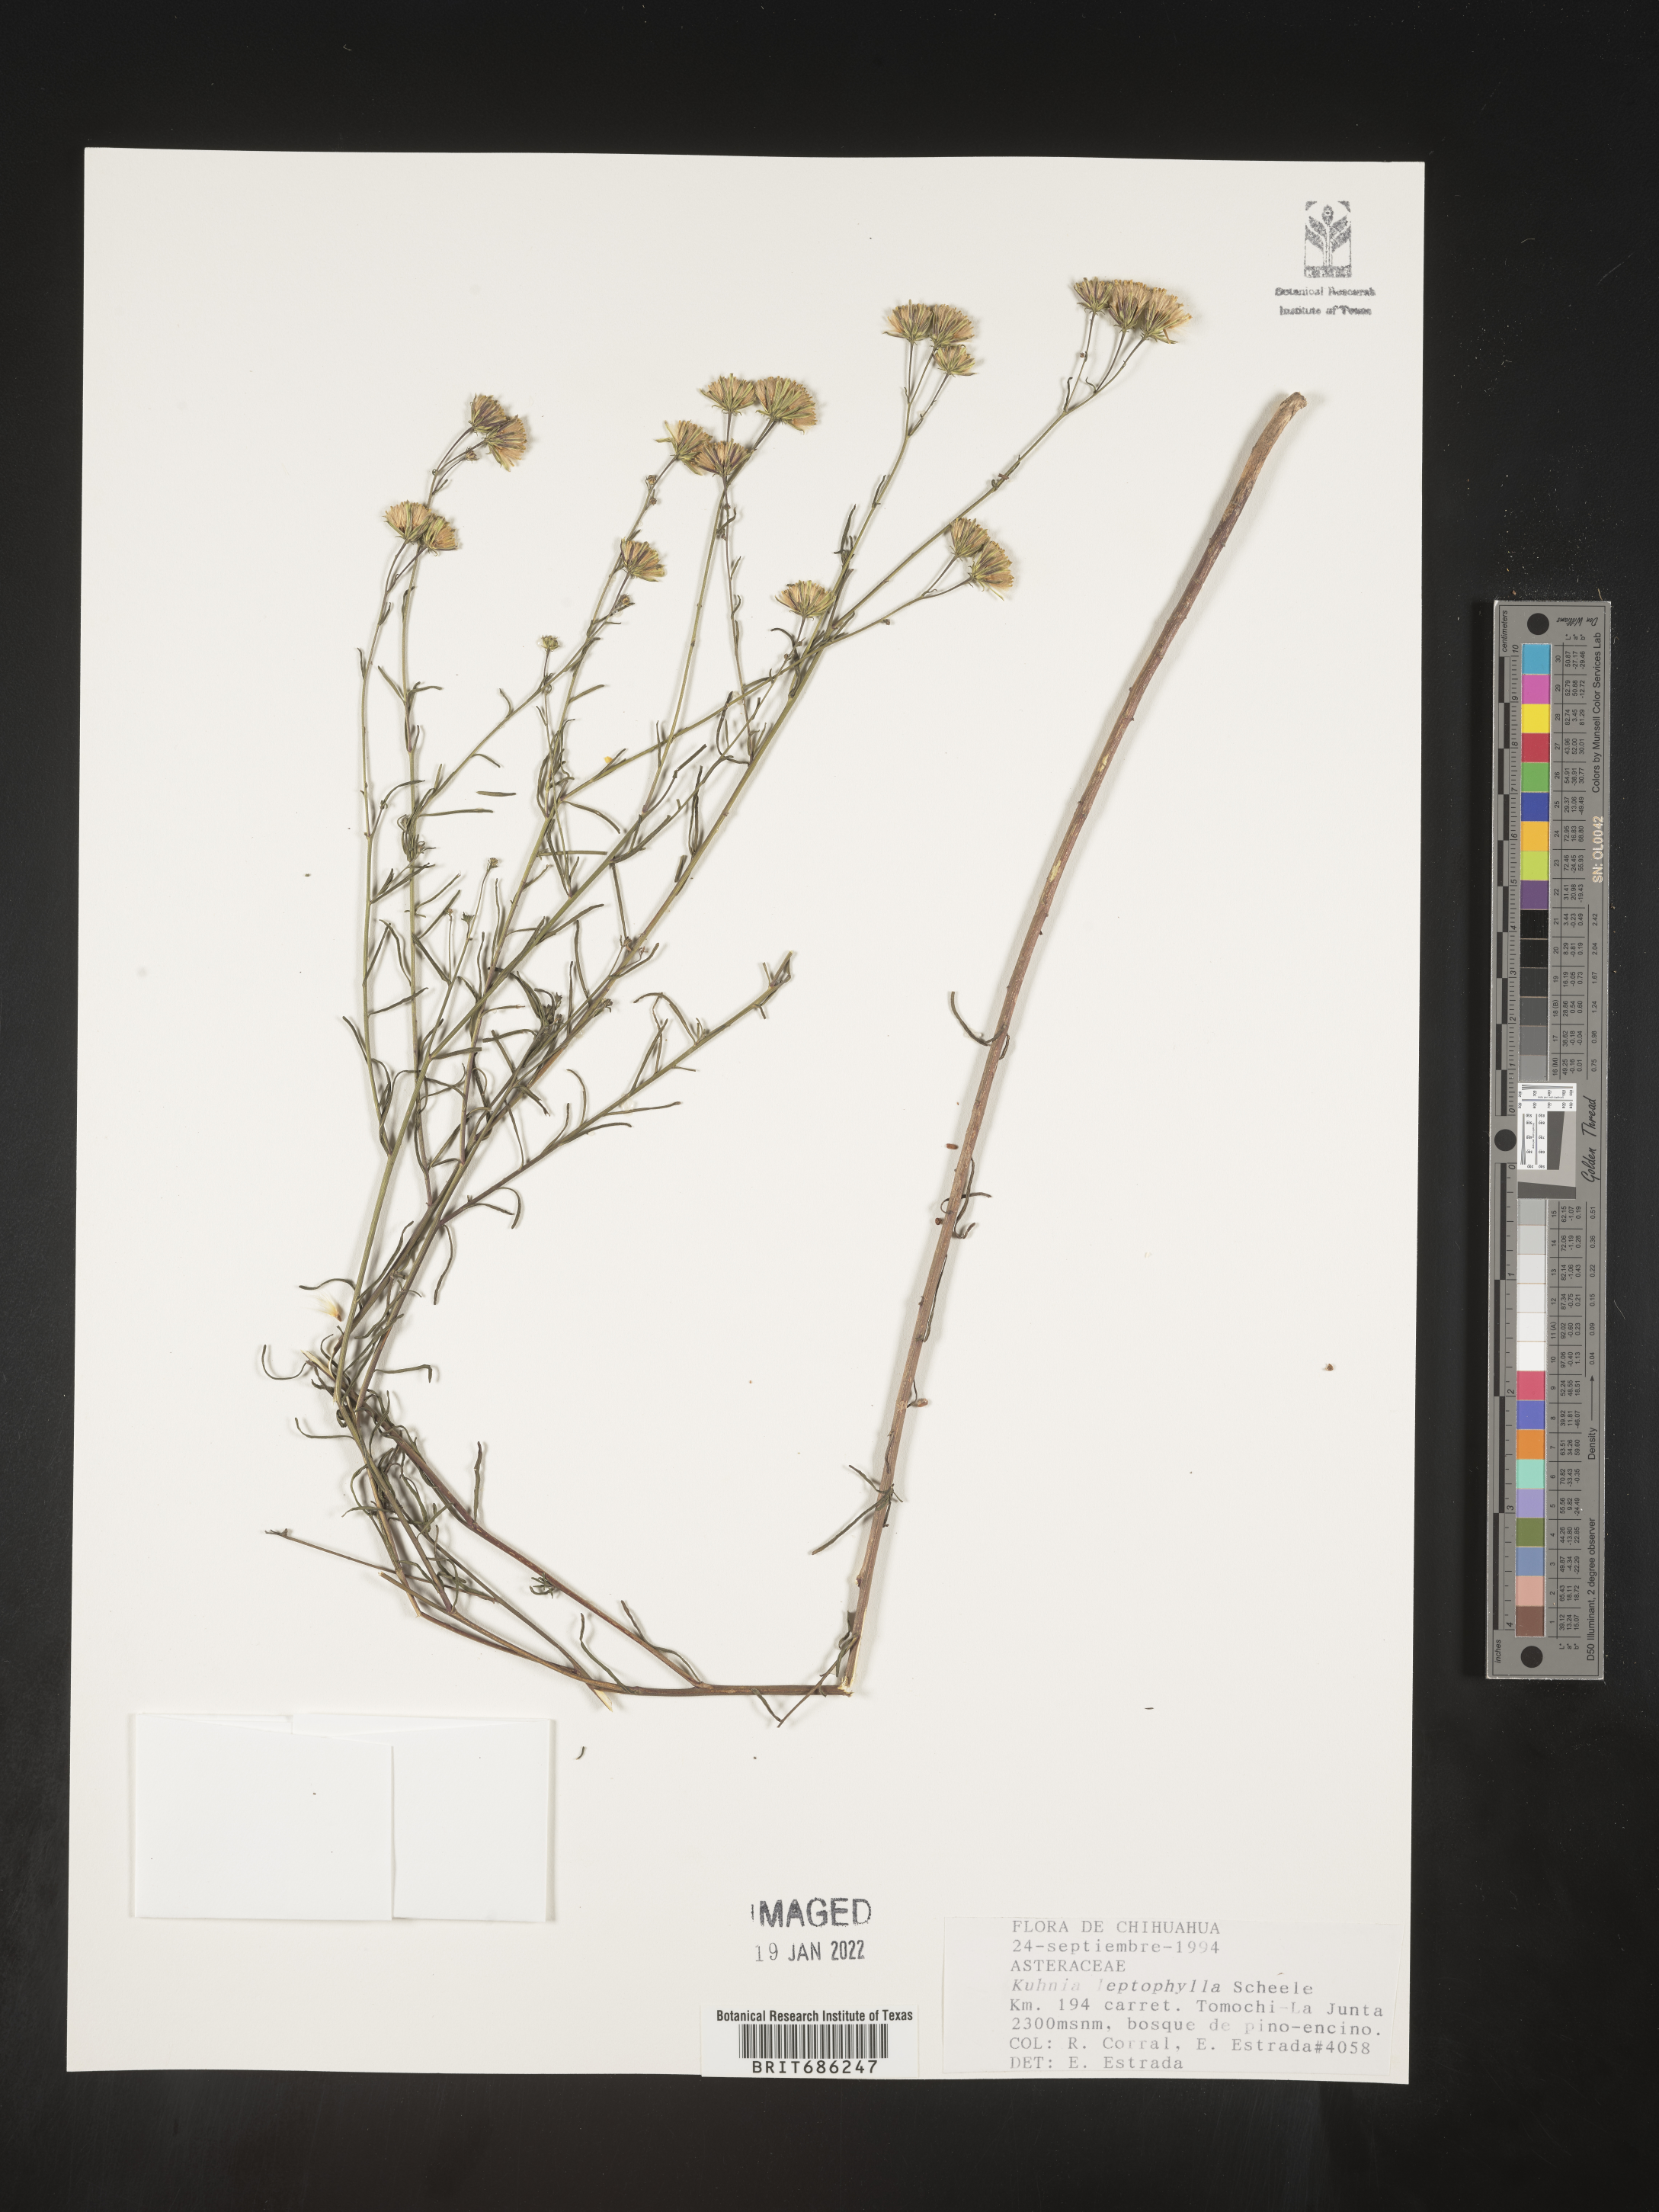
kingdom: Plantae
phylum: Tracheophyta
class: Magnoliopsida
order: Asterales
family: Asteraceae
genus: Brickellia
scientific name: Brickellia
